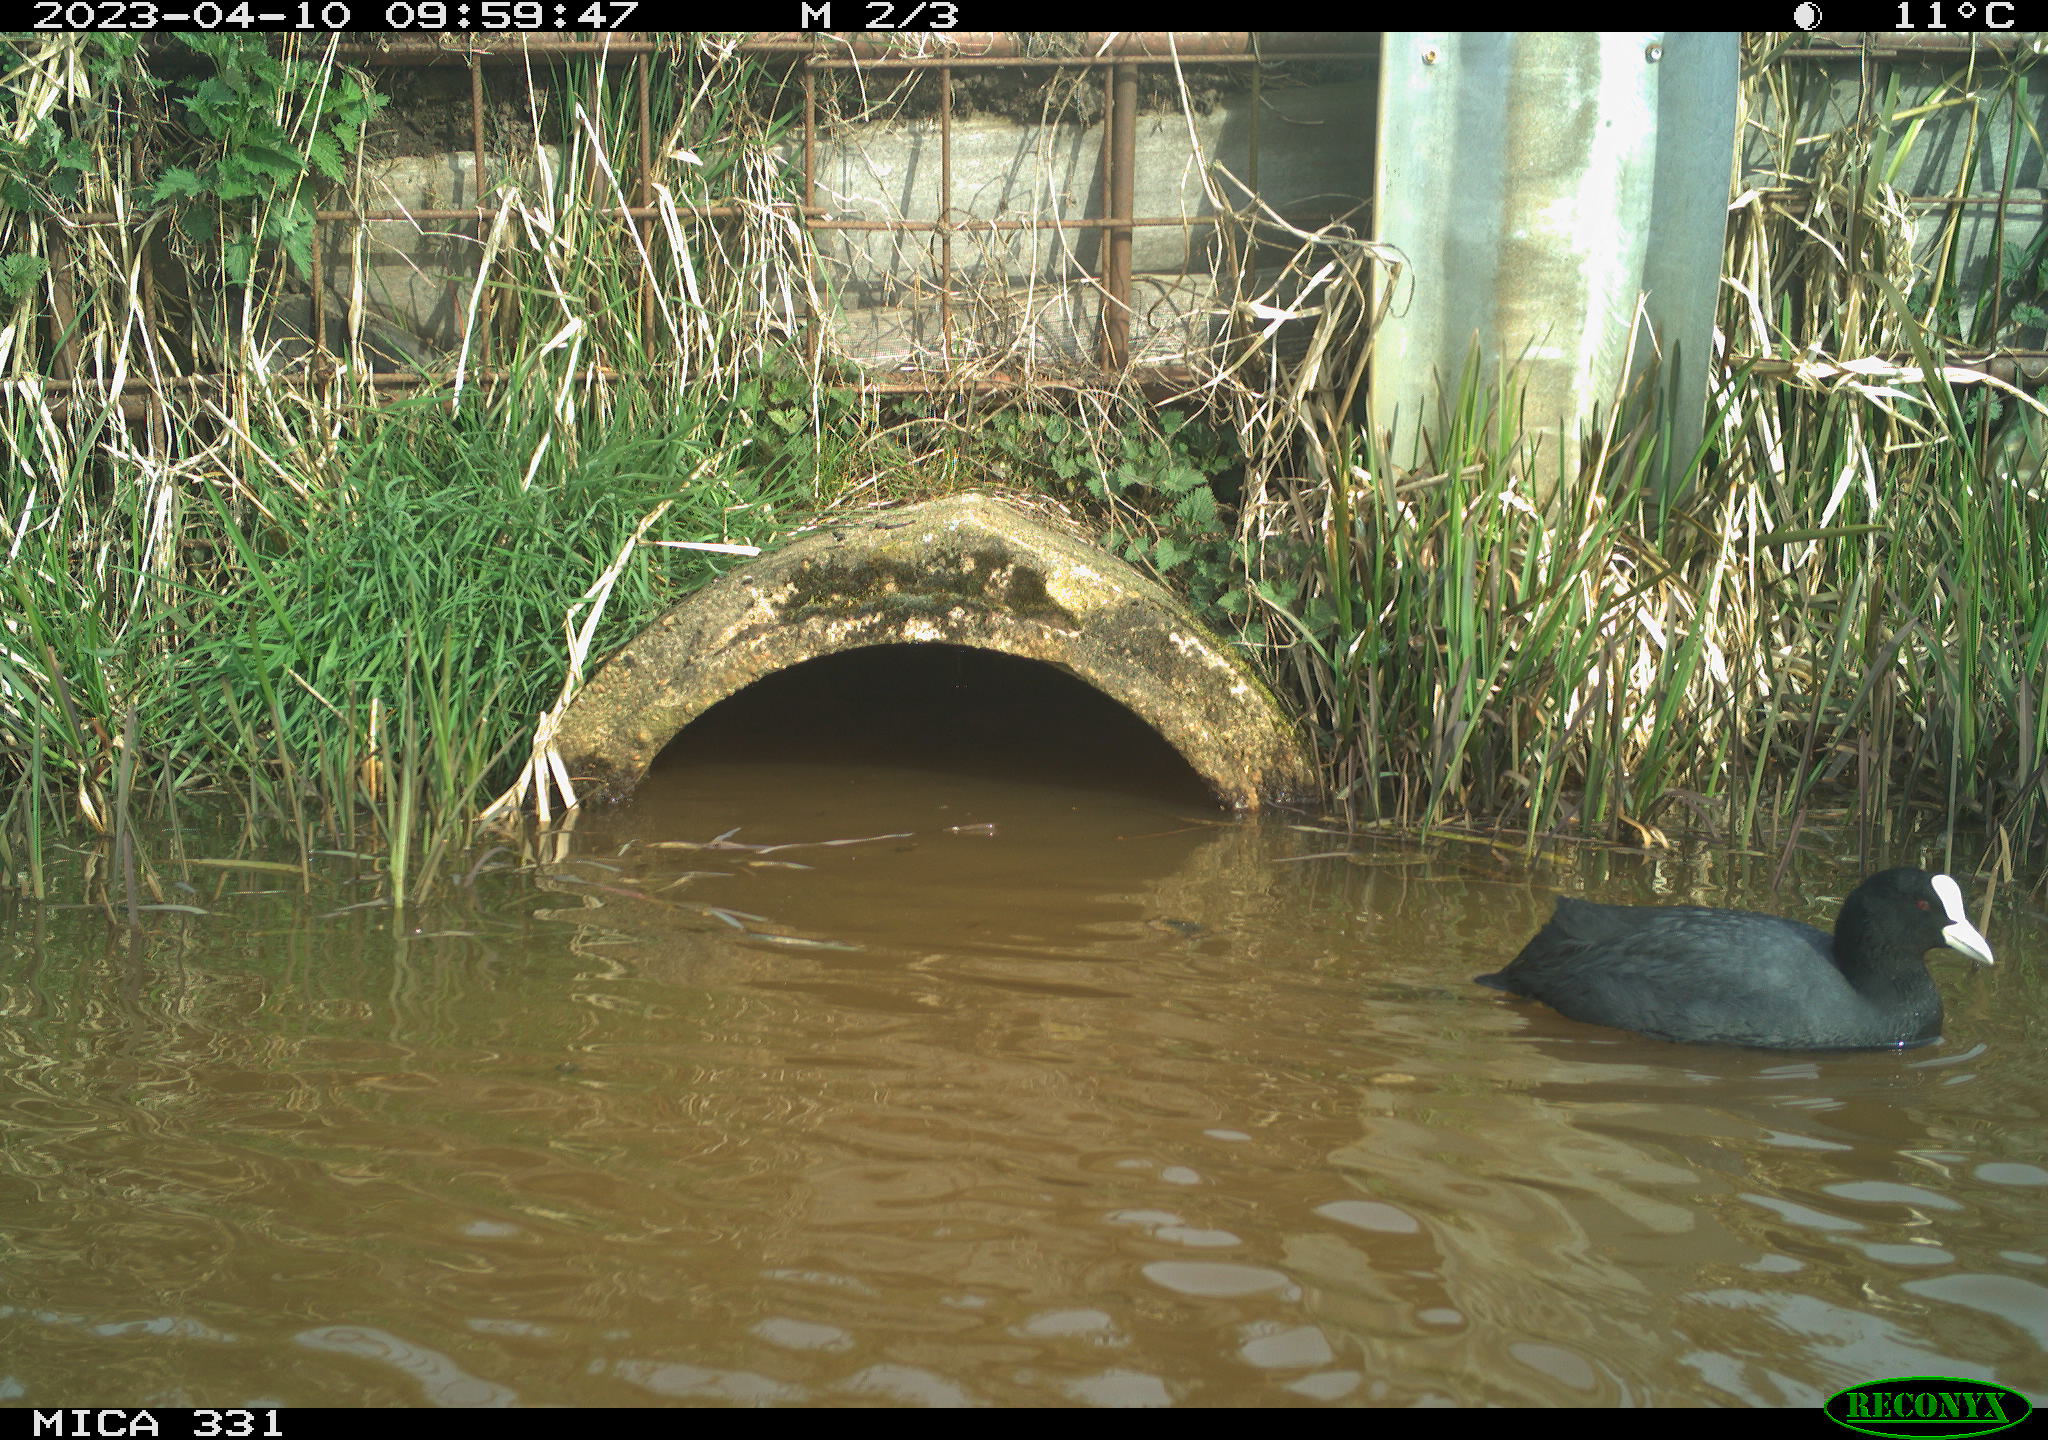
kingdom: Animalia
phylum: Chordata
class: Aves
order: Gruiformes
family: Rallidae
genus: Fulica
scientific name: Fulica atra
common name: Eurasian coot
